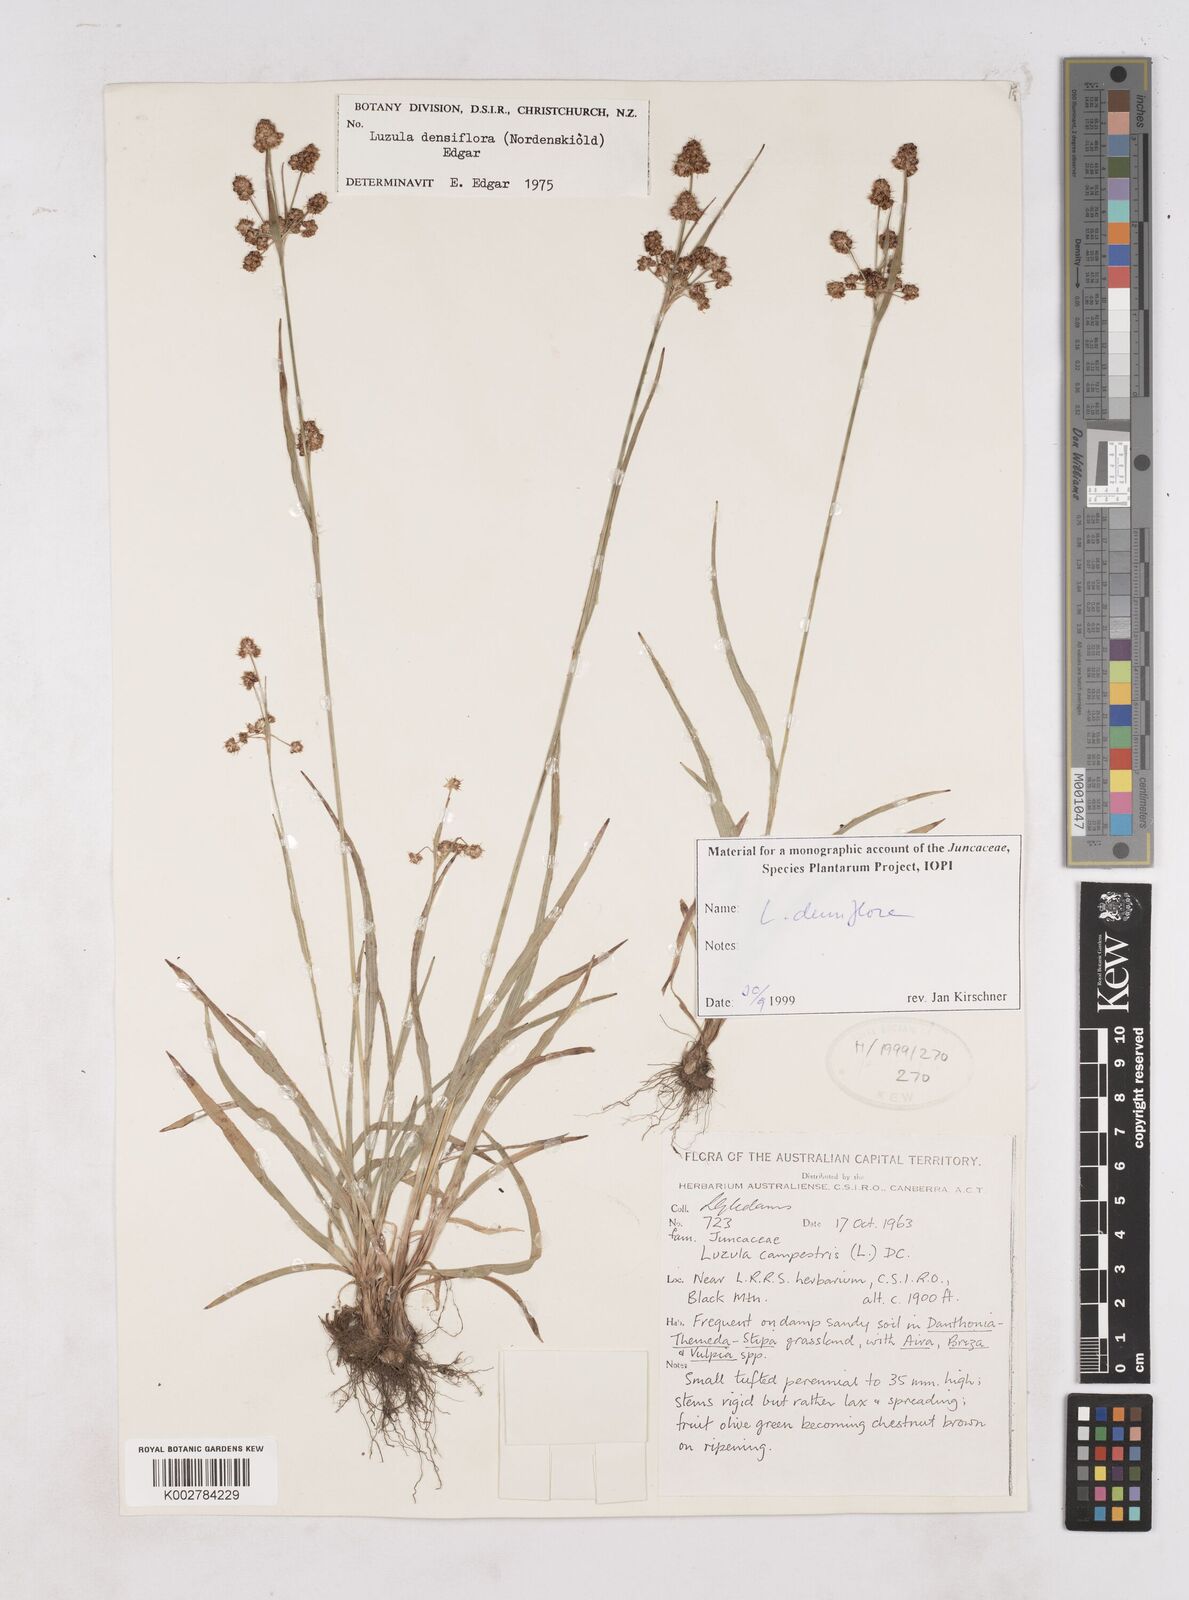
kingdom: Plantae
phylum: Tracheophyta
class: Liliopsida
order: Poales
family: Juncaceae
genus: Luzula
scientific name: Luzula densiflora
